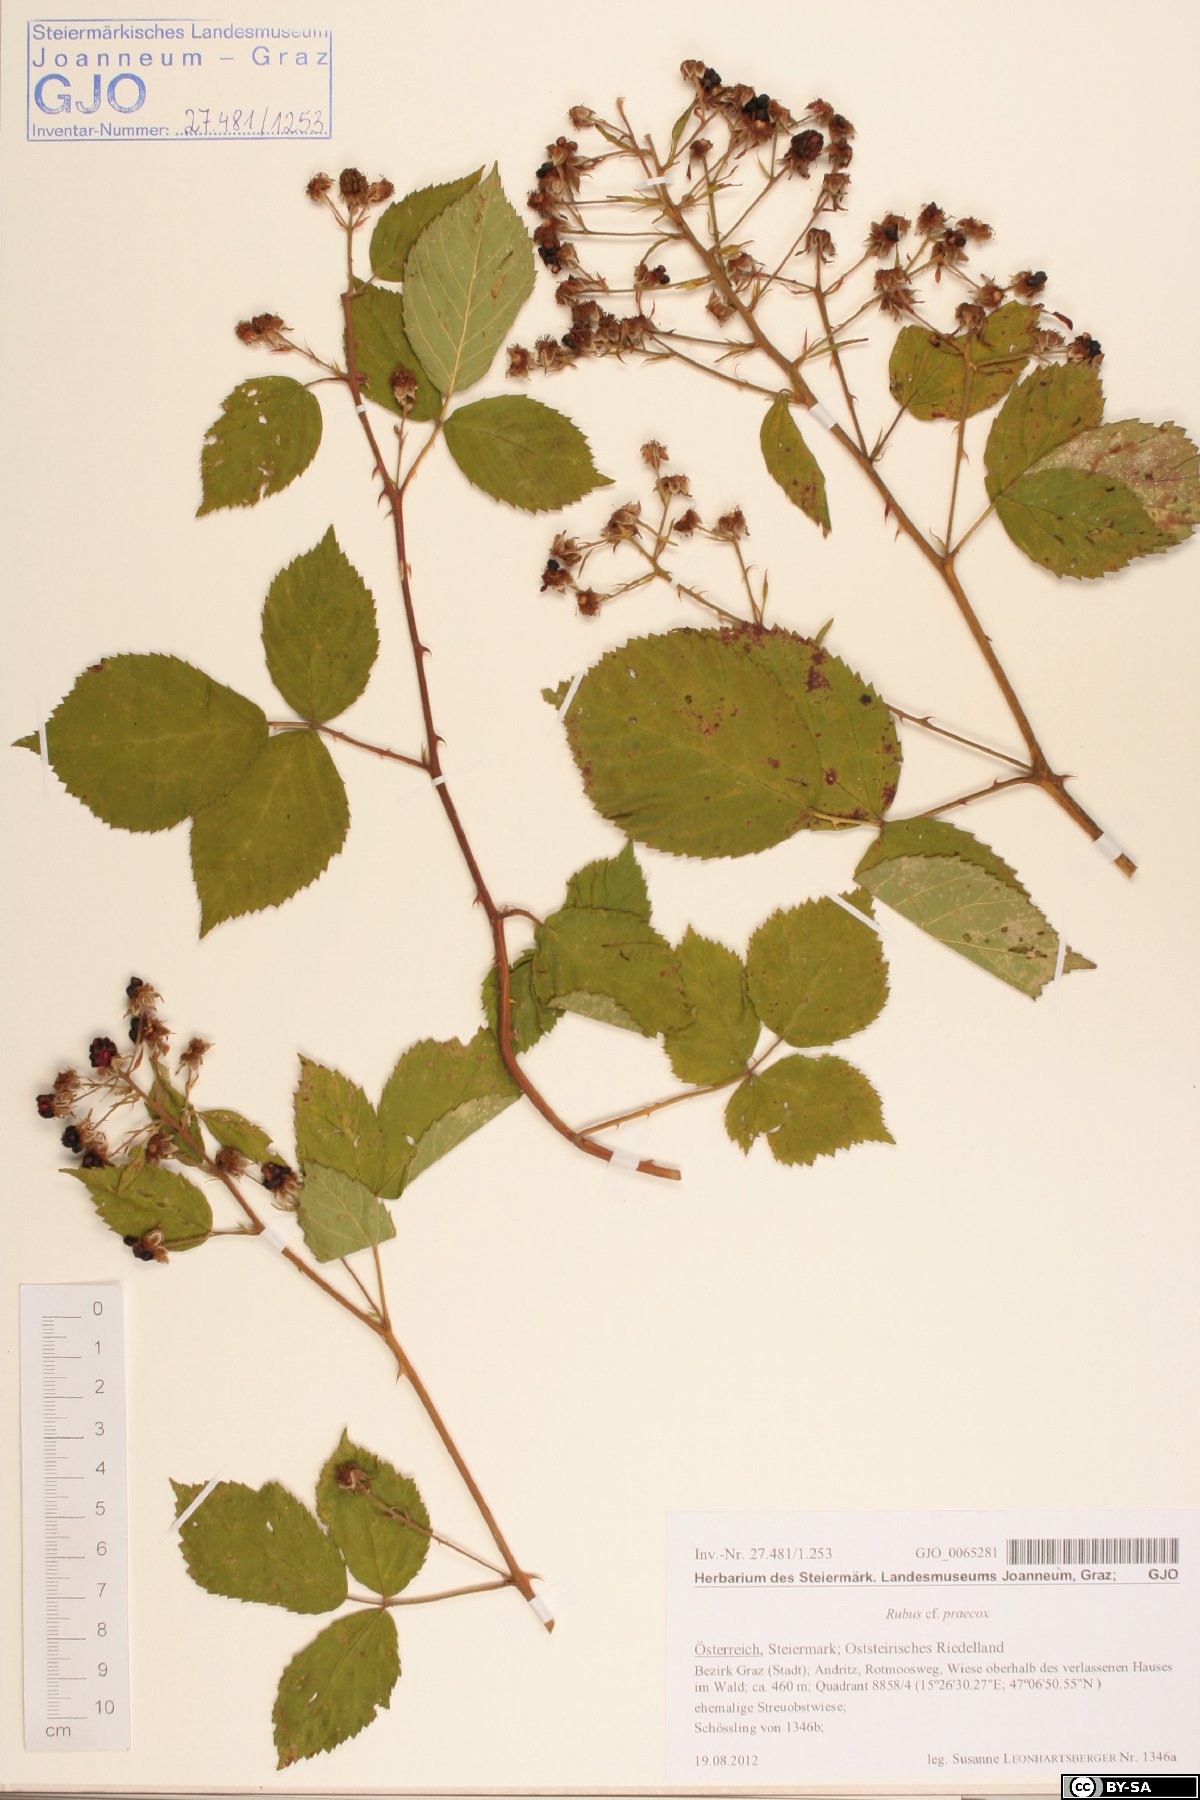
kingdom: Plantae
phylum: Tracheophyta
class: Magnoliopsida
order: Rosales
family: Rosaceae
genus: Rubus
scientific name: Rubus sulcatus
